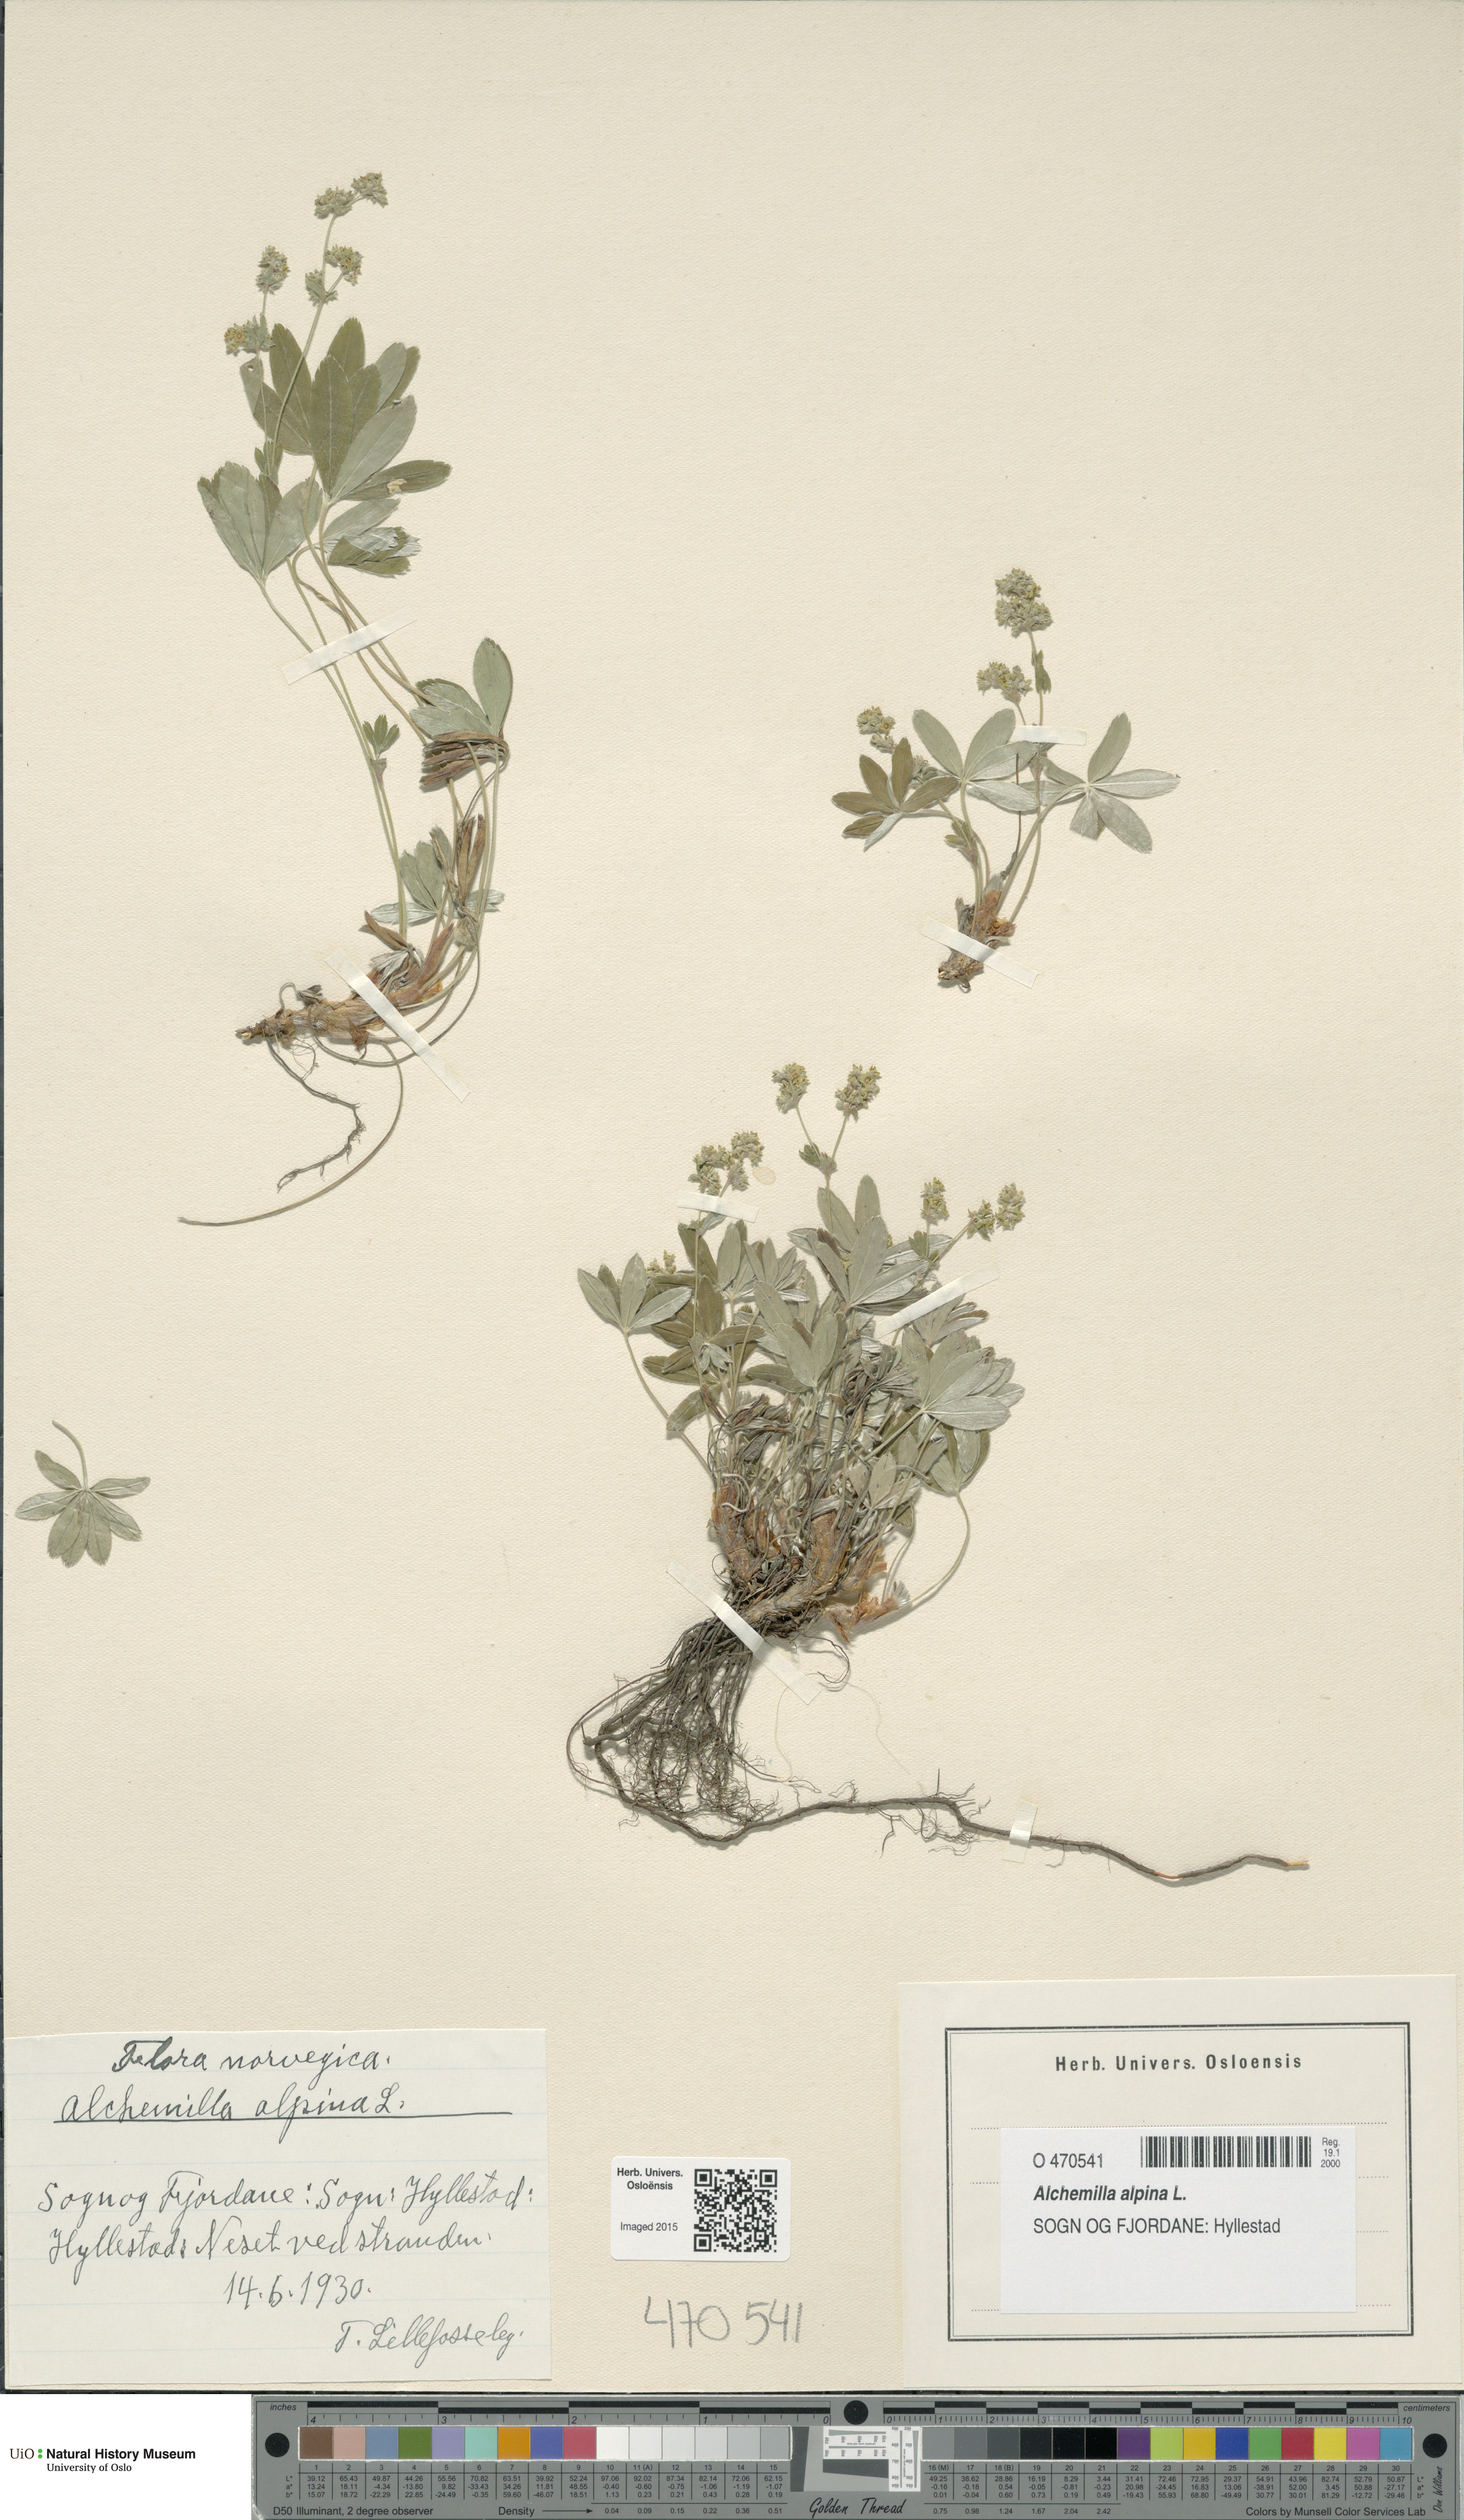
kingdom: Plantae
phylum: Tracheophyta
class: Magnoliopsida
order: Rosales
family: Rosaceae
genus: Alchemilla
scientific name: Alchemilla alpina
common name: Alpine lady's-mantle
